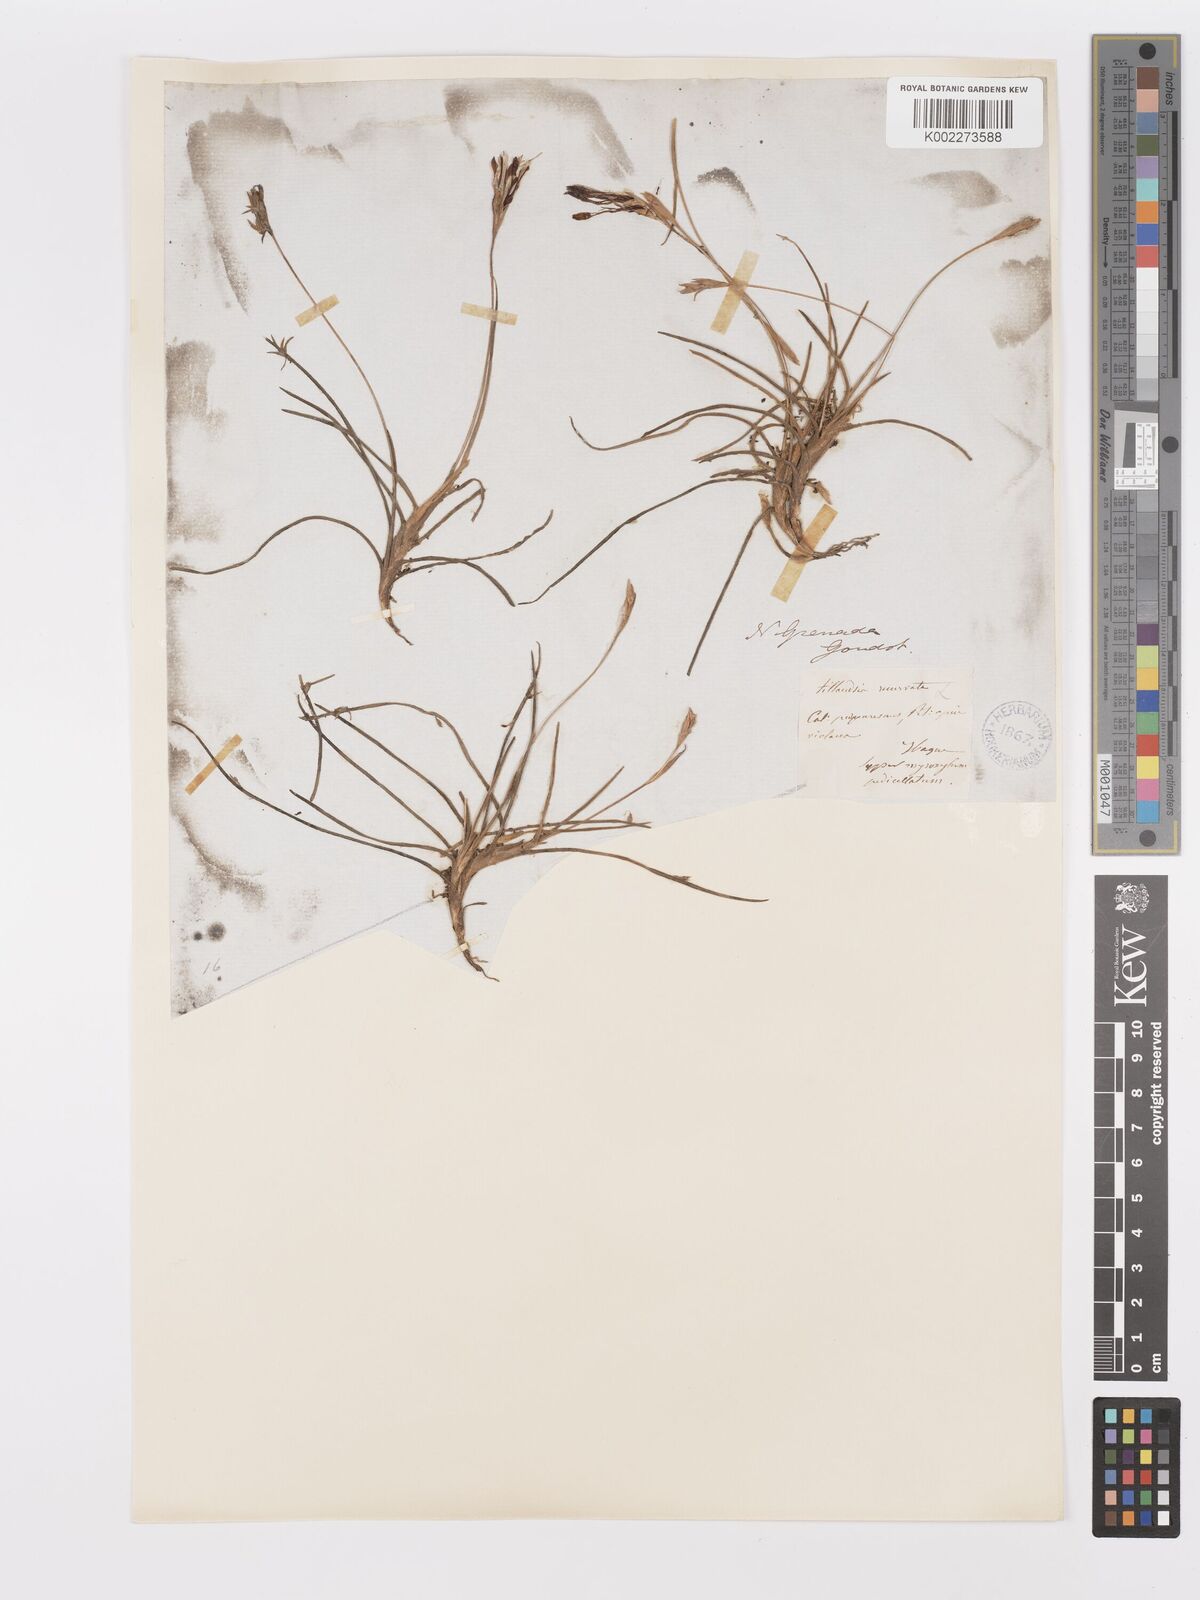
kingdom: Plantae
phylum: Tracheophyta
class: Liliopsida
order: Poales
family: Bromeliaceae
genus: Tillandsia
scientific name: Tillandsia recurvata
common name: Small ballmoss
